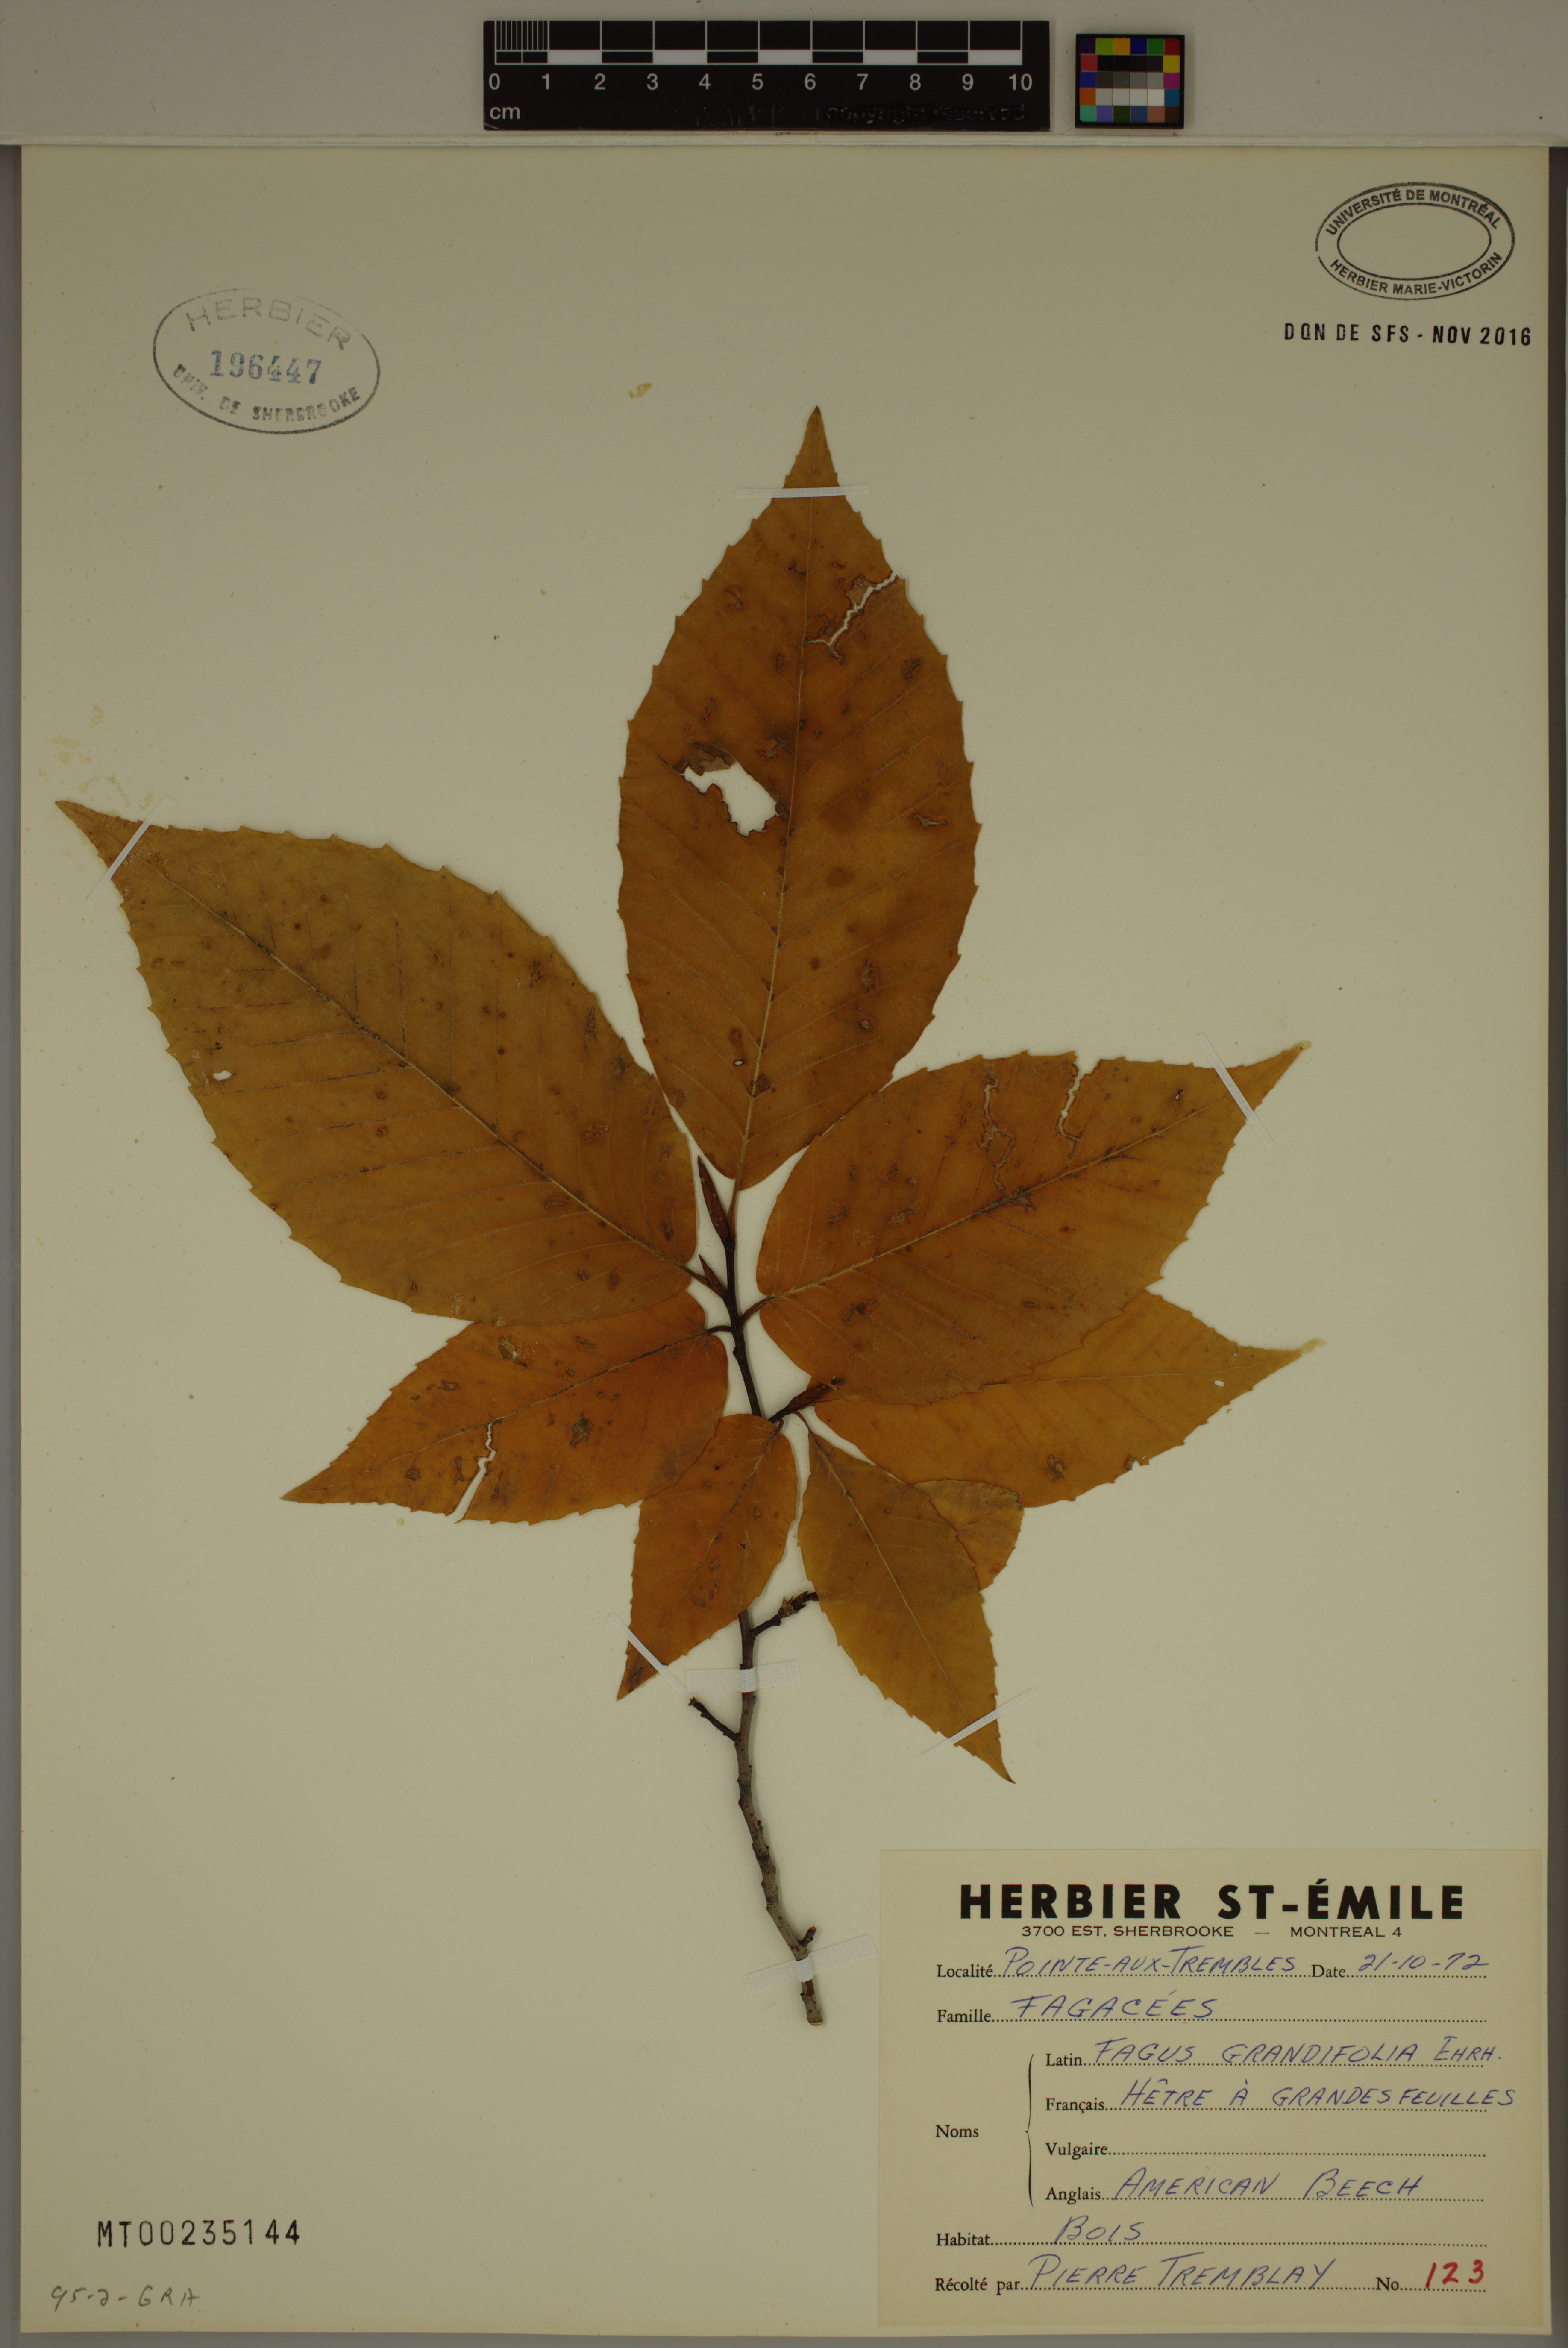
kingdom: Plantae
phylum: Tracheophyta
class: Magnoliopsida
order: Fagales
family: Fagaceae
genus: Fagus
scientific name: Fagus grandifolia
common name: American beech
